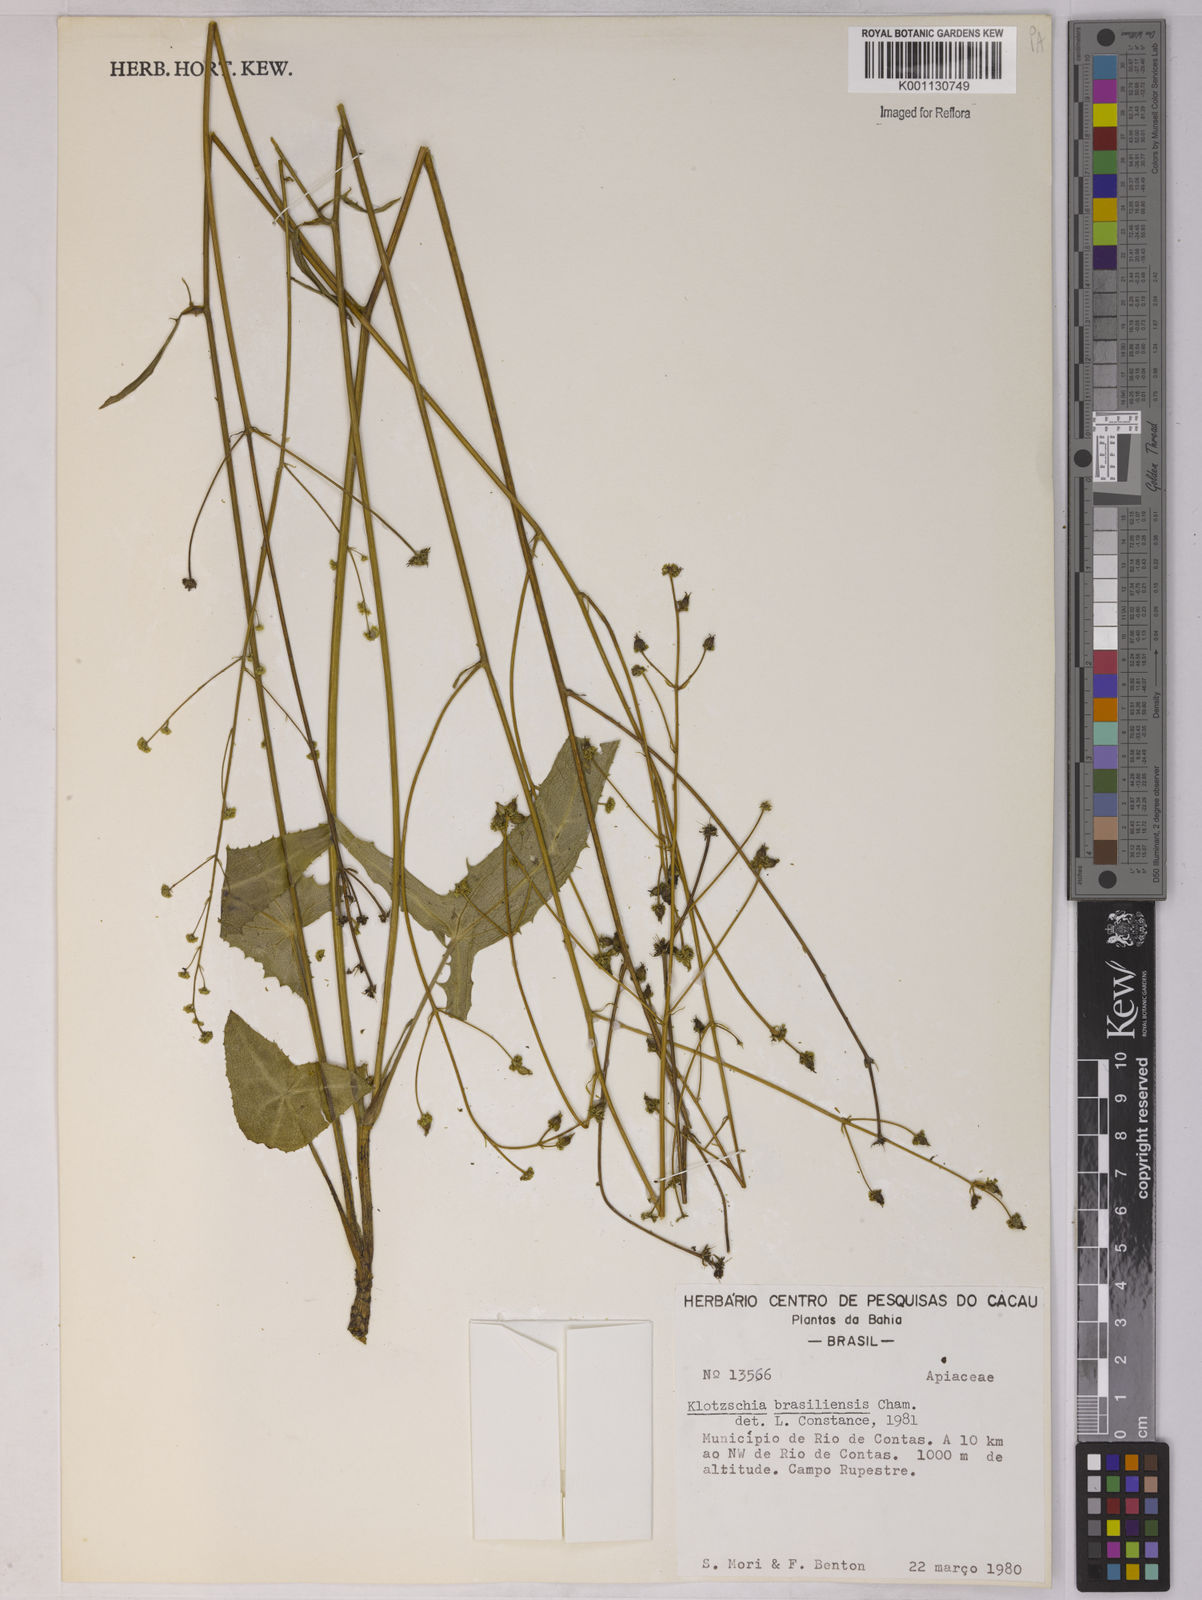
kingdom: Plantae
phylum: Tracheophyta
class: Magnoliopsida
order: Apiales
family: Apiaceae
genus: Klotzschia
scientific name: Klotzschia brasiliensis
